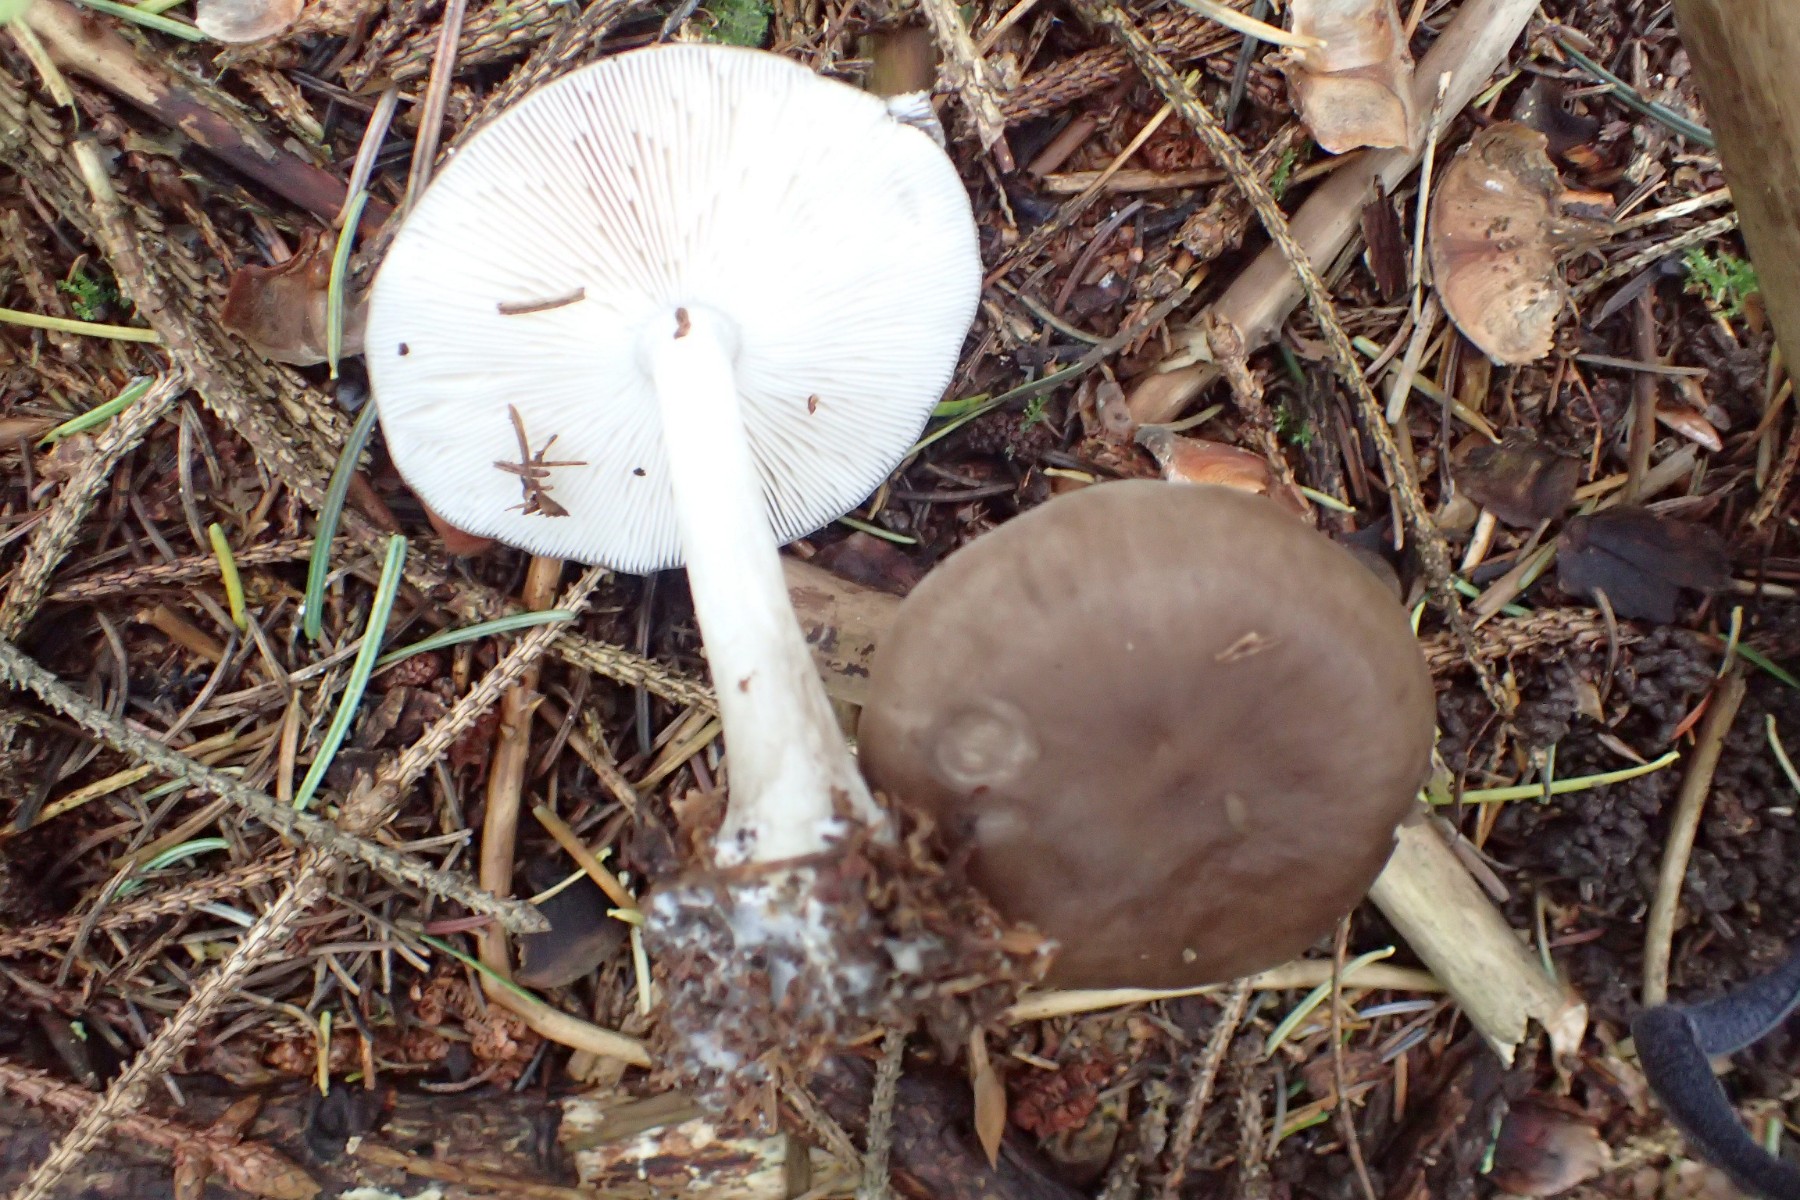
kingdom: Fungi
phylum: Basidiomycota
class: Agaricomycetes
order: Agaricales
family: Tricholomataceae
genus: Melanoleuca
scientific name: Melanoleuca
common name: munkehat
